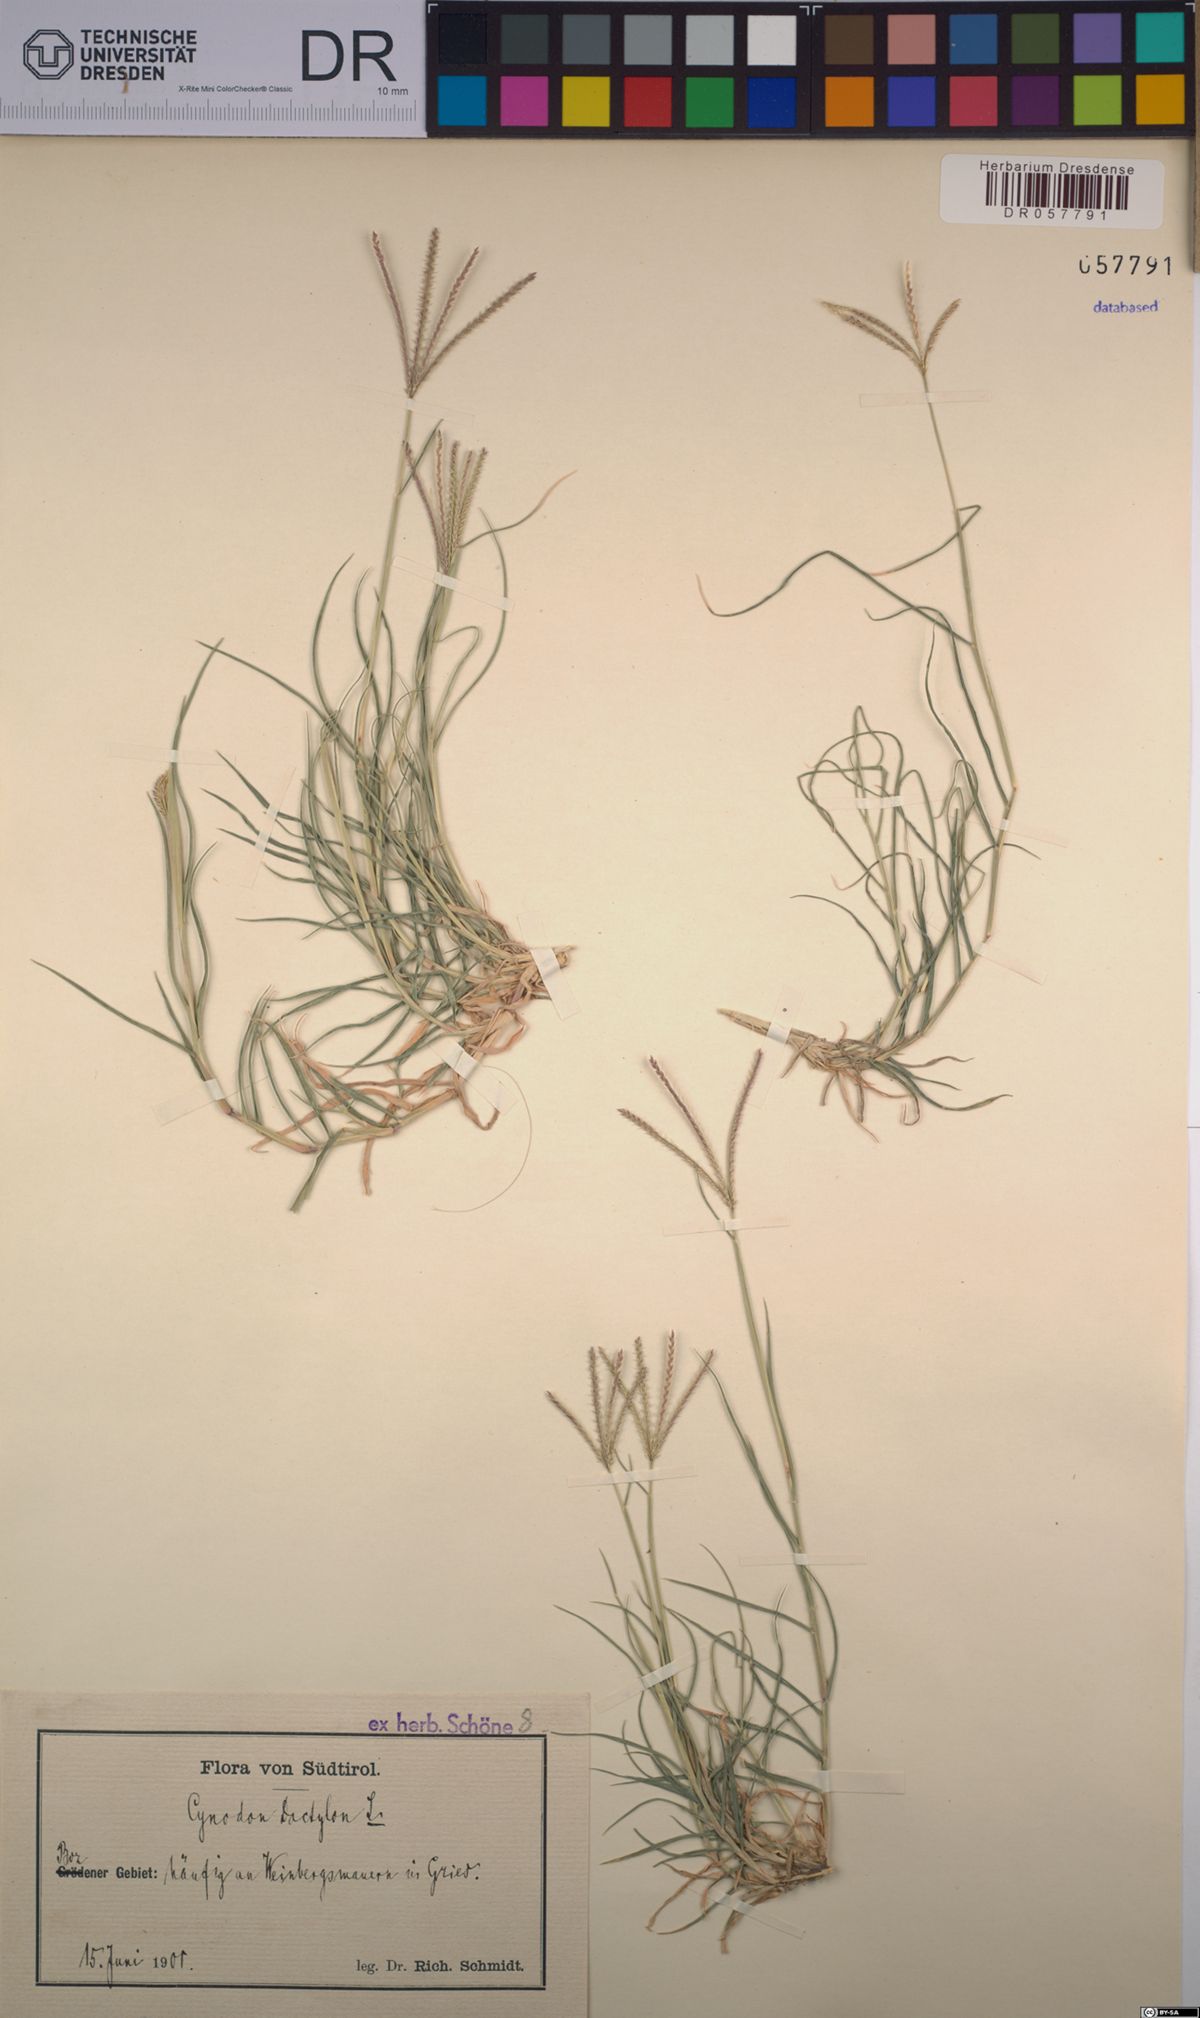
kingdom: Plantae
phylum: Tracheophyta
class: Liliopsida
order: Poales
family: Poaceae
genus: Cynodon
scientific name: Cynodon dactylon
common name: Bermuda grass
